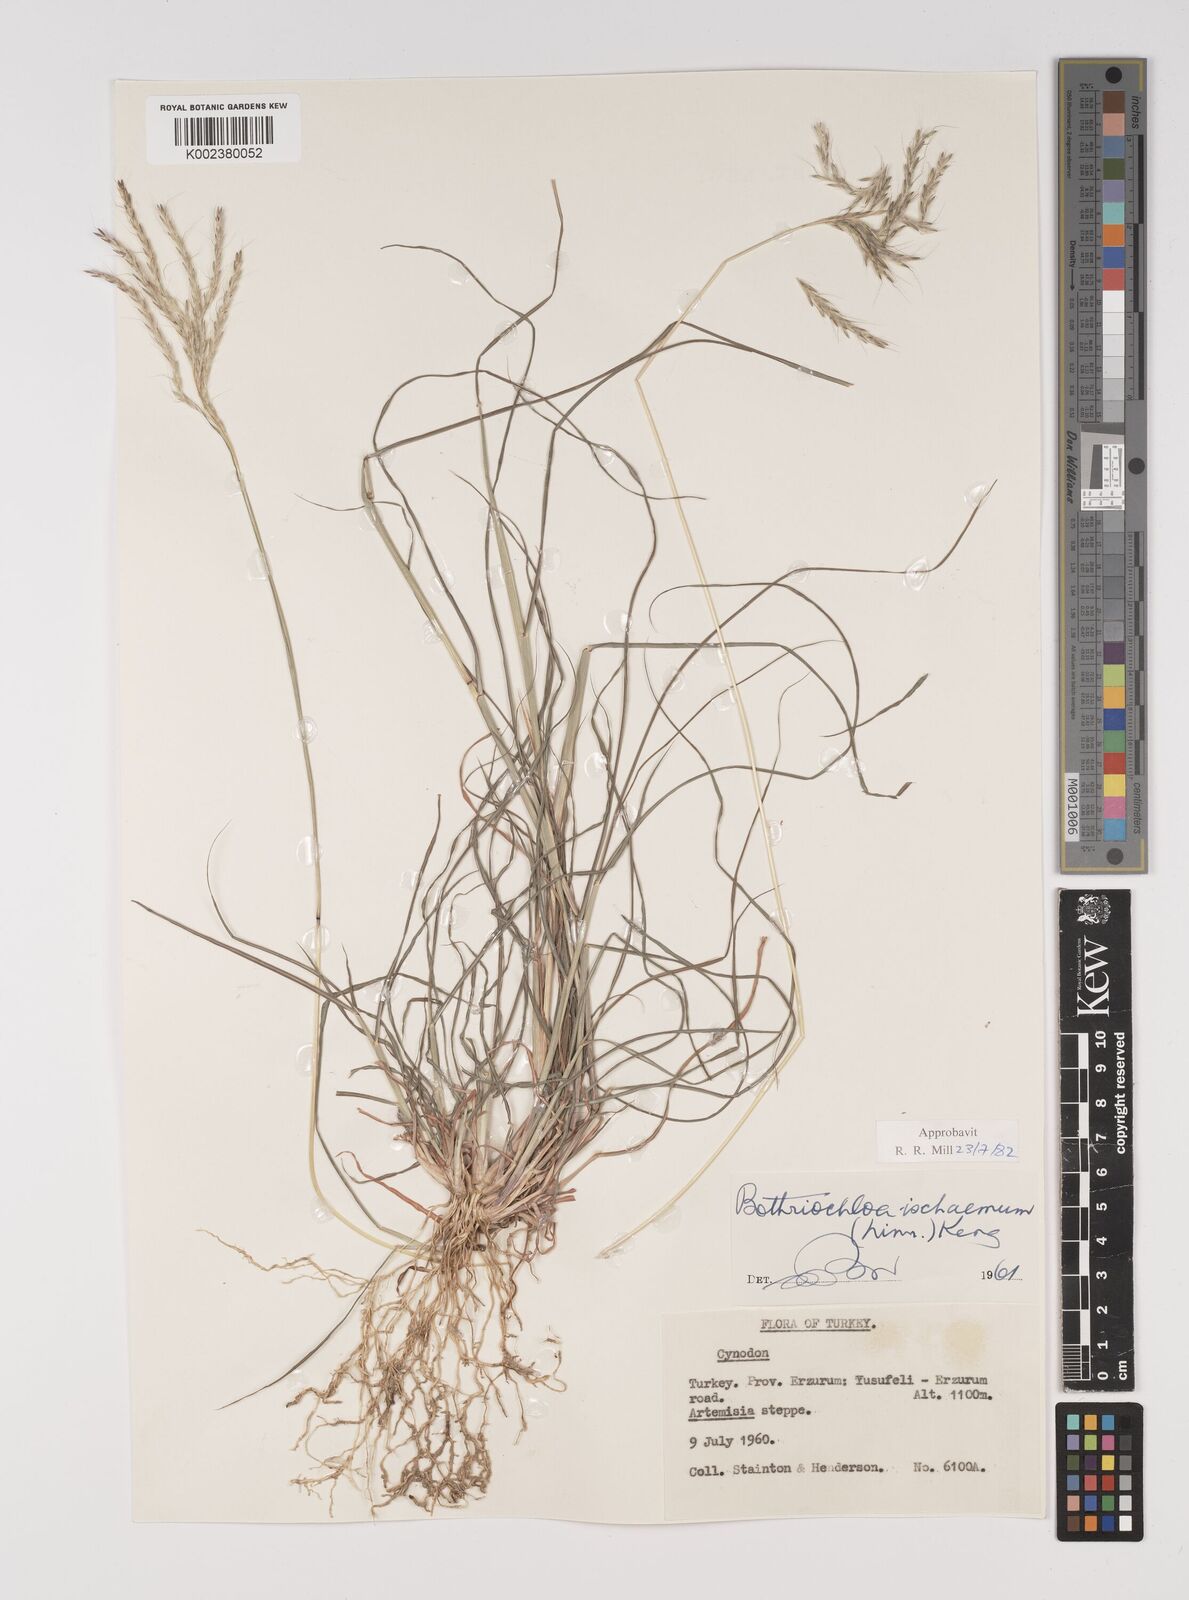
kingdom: Plantae
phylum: Tracheophyta
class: Liliopsida
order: Poales
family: Poaceae
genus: Bothriochloa
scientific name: Bothriochloa ischaemum
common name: Yellow bluestem
